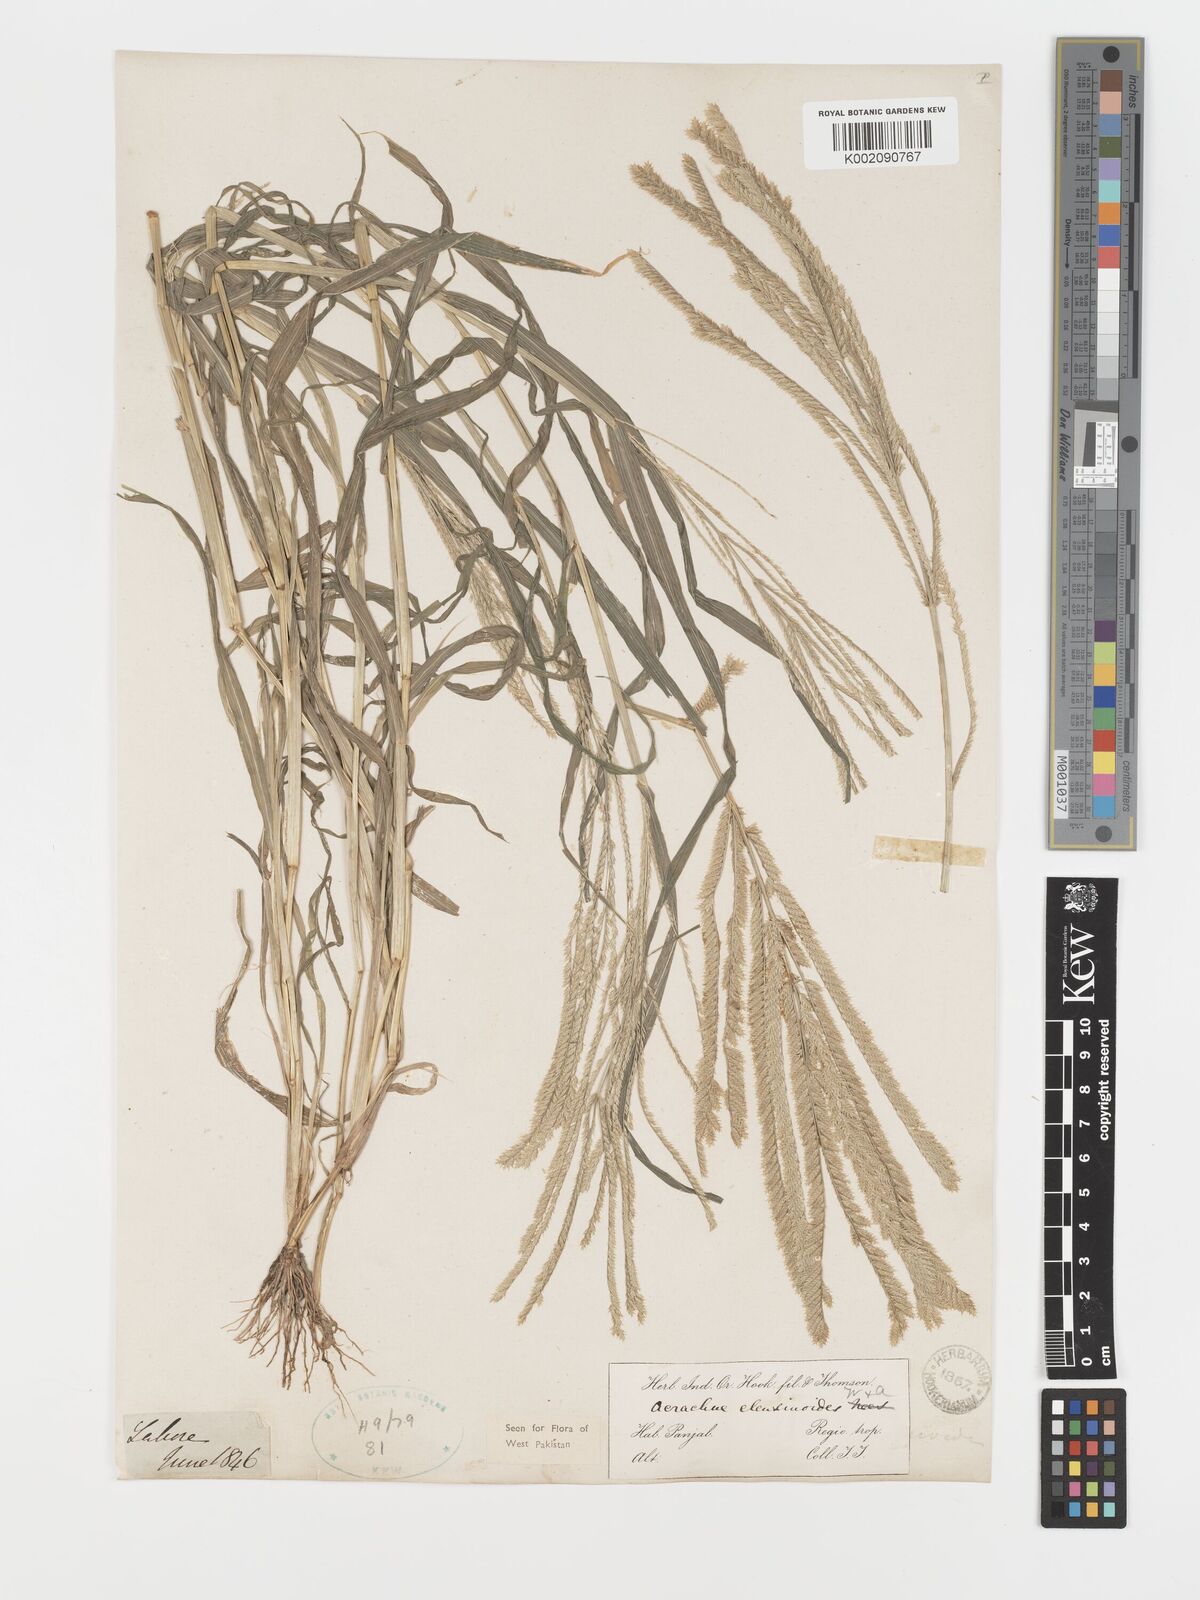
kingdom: Plantae
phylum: Tracheophyta
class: Liliopsida
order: Poales
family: Poaceae
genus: Acrachne
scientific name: Acrachne racemosa
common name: Goosegrass
